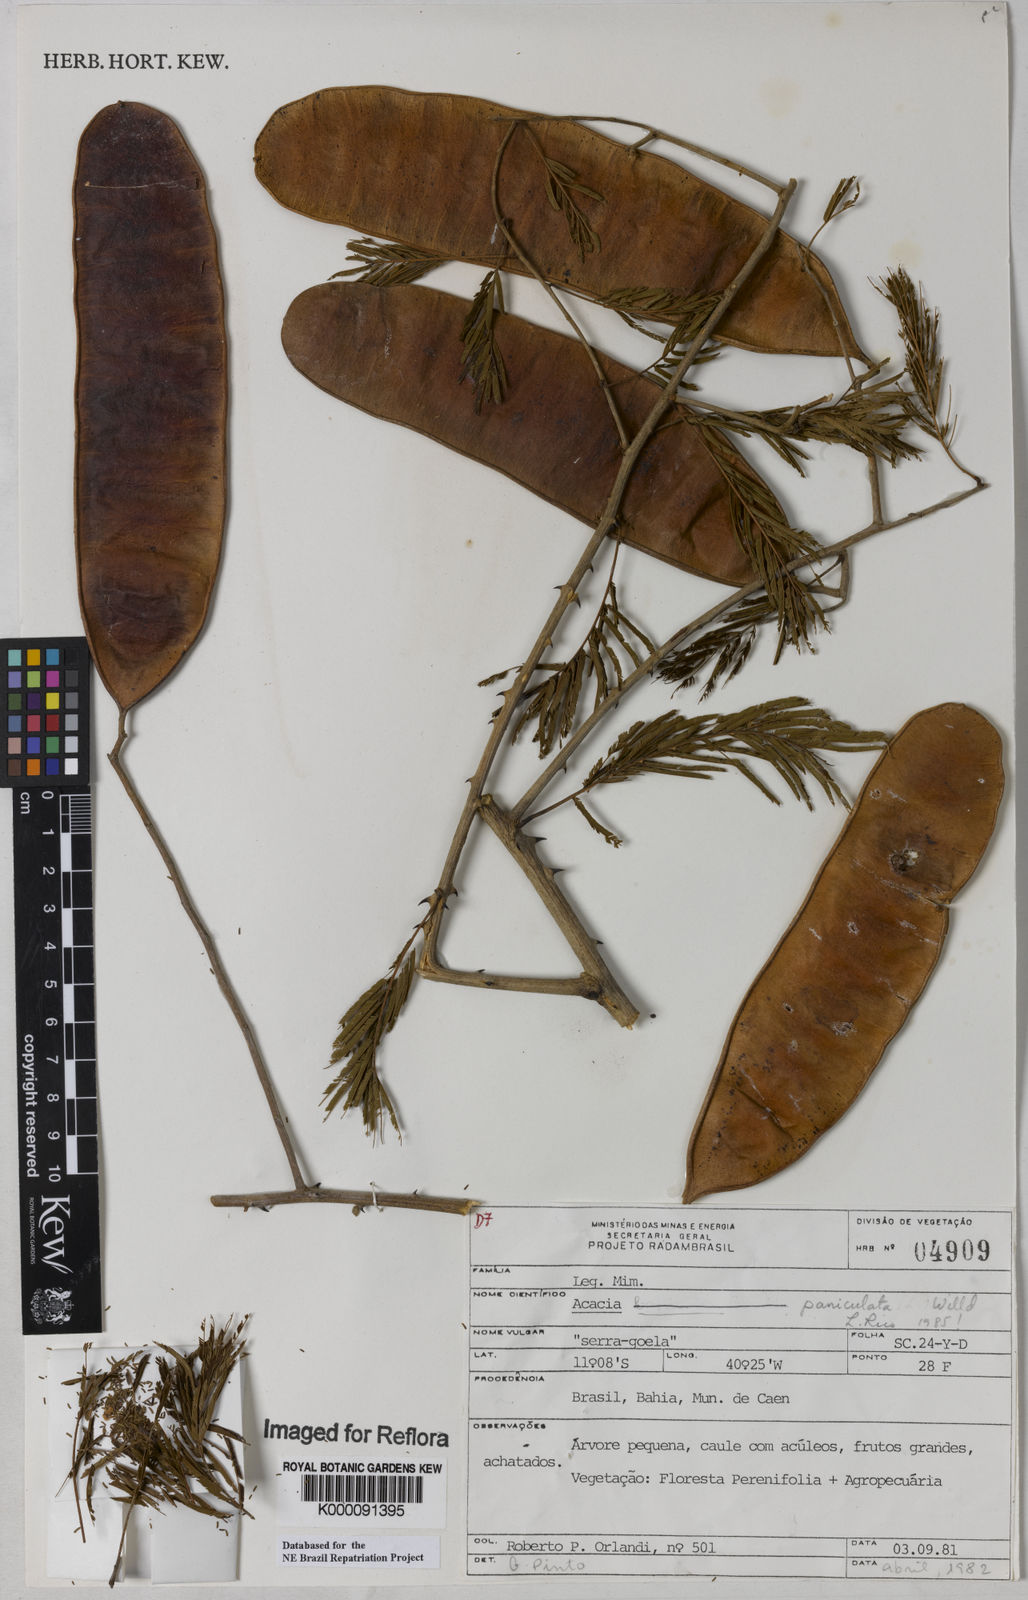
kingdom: Plantae
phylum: Tracheophyta
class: Magnoliopsida
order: Fabales
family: Fabaceae
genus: Senegalia
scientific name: Senegalia tenuifolia
